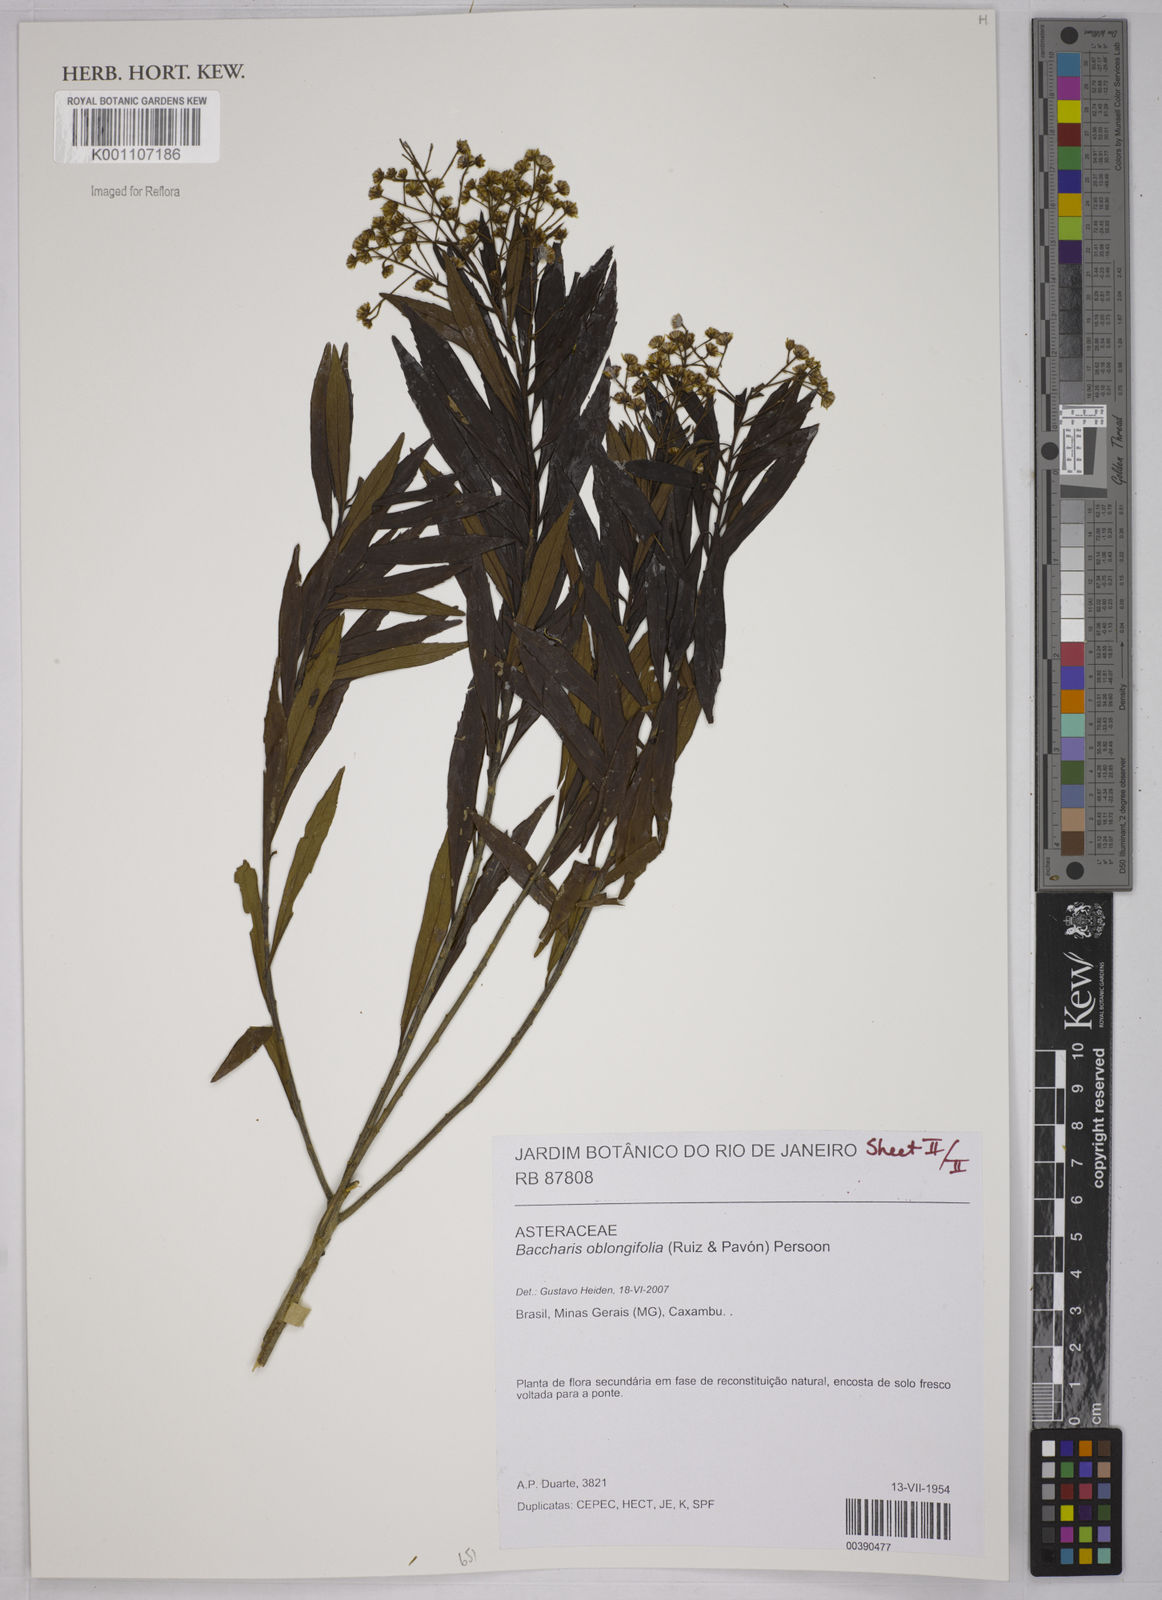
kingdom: Plantae
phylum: Tracheophyta
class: Magnoliopsida
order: Asterales
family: Asteraceae
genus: Baccharis
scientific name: Baccharis oblongifolia
